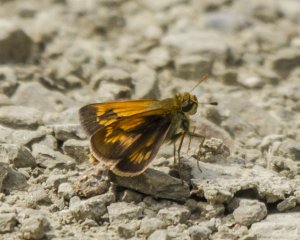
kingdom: Animalia
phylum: Arthropoda
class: Insecta
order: Lepidoptera
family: Hesperiidae
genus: Polites
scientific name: Polites
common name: Long Dash Skipper
